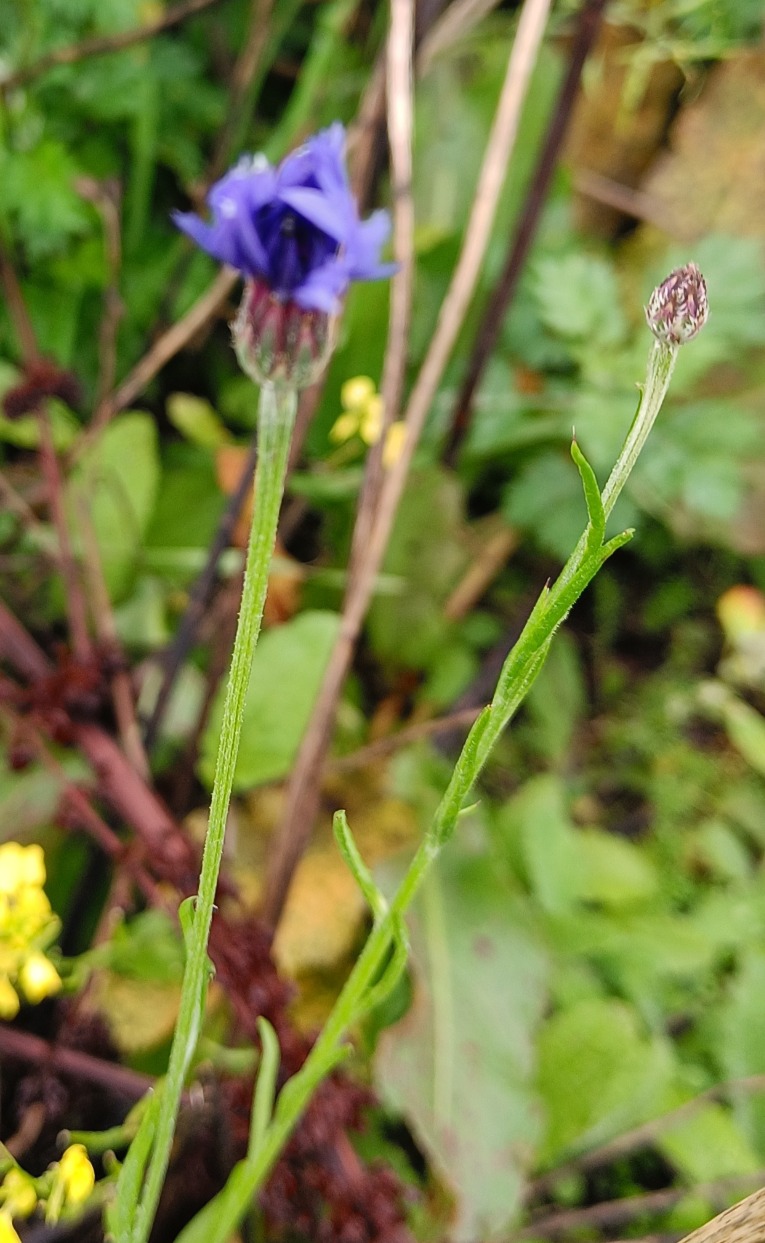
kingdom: Plantae
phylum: Tracheophyta
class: Magnoliopsida
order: Asterales
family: Asteraceae
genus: Centaurea
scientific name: Centaurea cyanus
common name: Kornblomst
